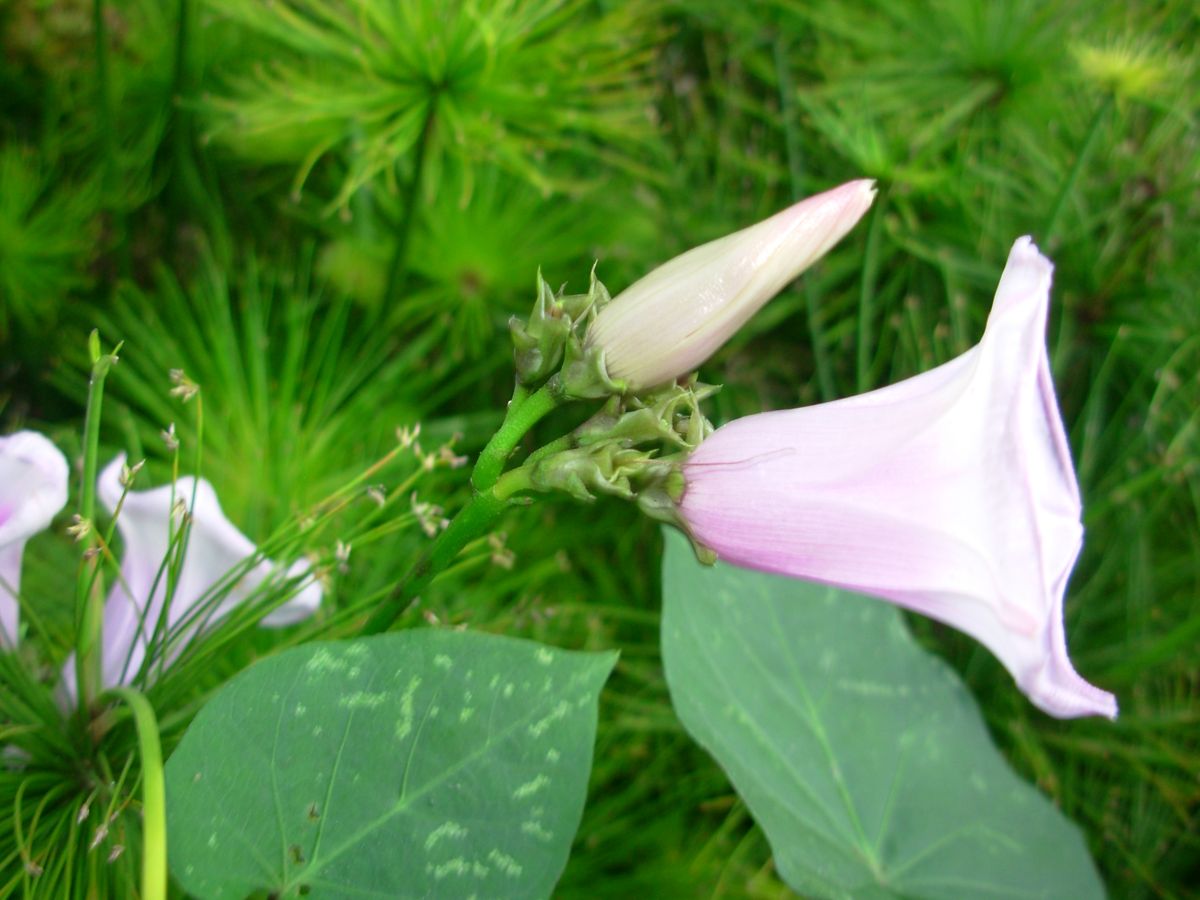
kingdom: Plantae
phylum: Tracheophyta
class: Magnoliopsida
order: Solanales
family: Convolvulaceae
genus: Ipomoea
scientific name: Ipomoea
